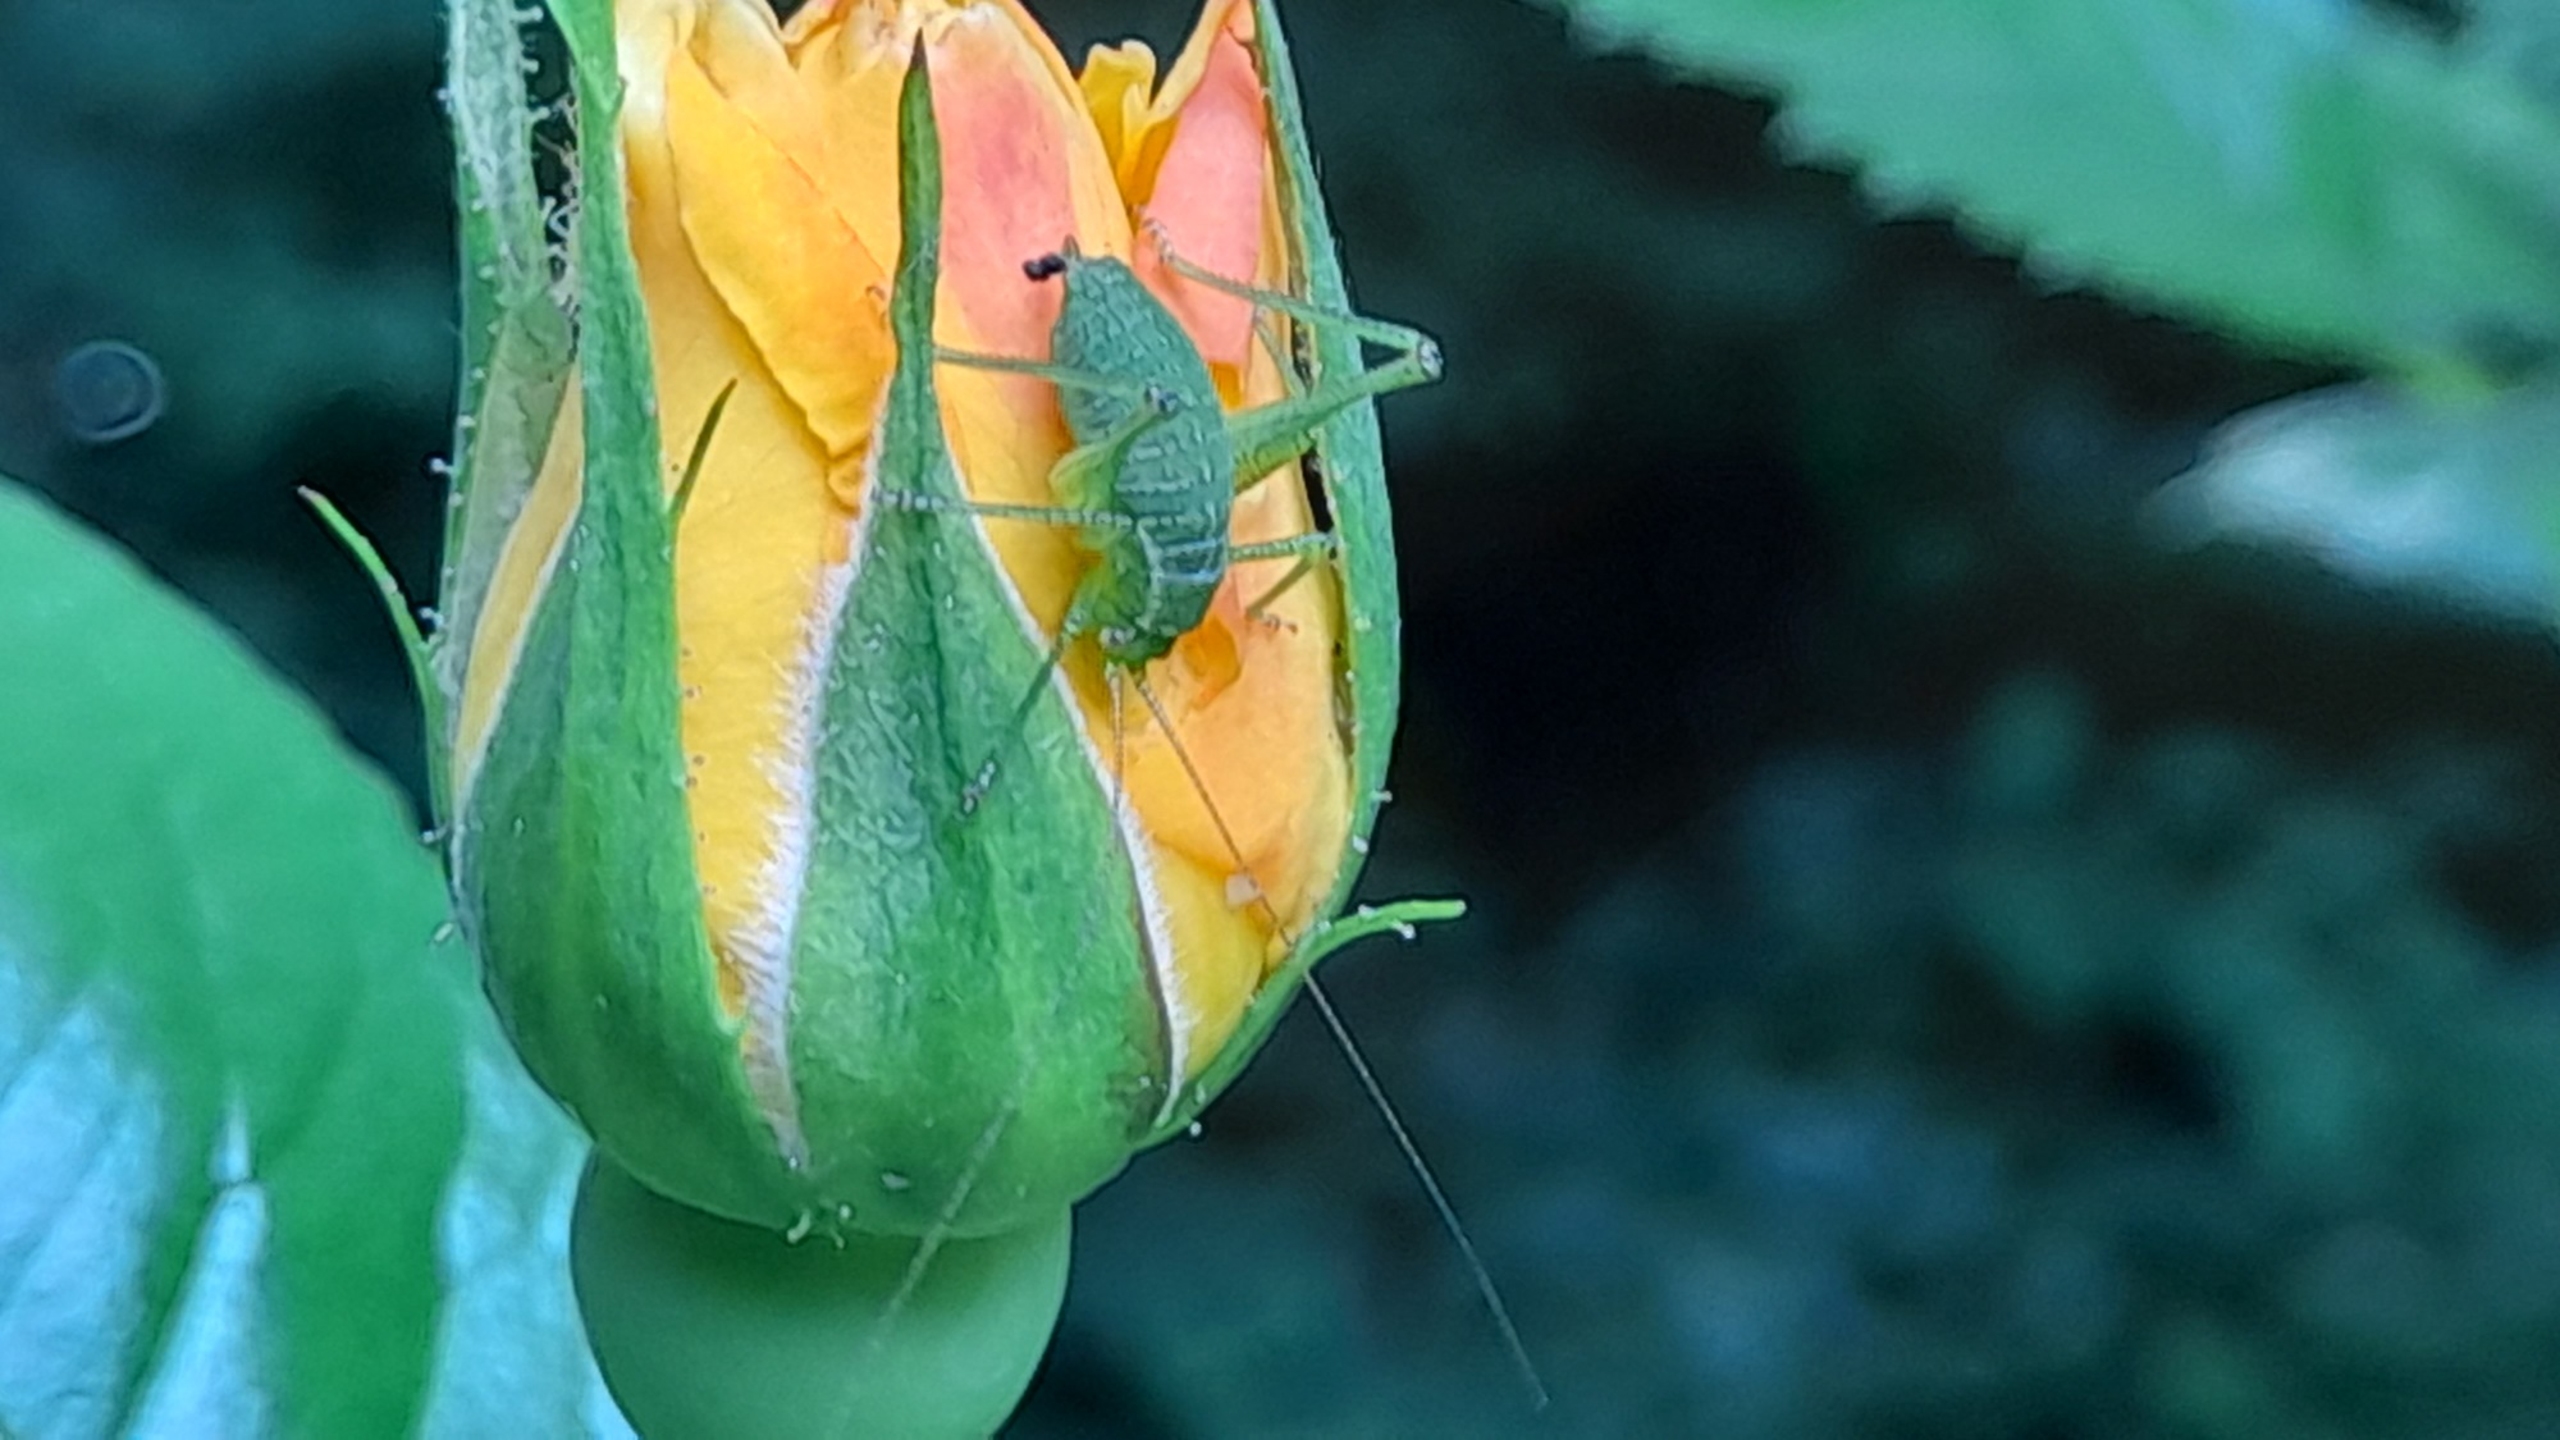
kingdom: Animalia
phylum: Arthropoda
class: Insecta
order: Orthoptera
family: Tettigoniidae
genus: Leptophyes
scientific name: Leptophyes punctatissima
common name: Krumknivgræshoppe
